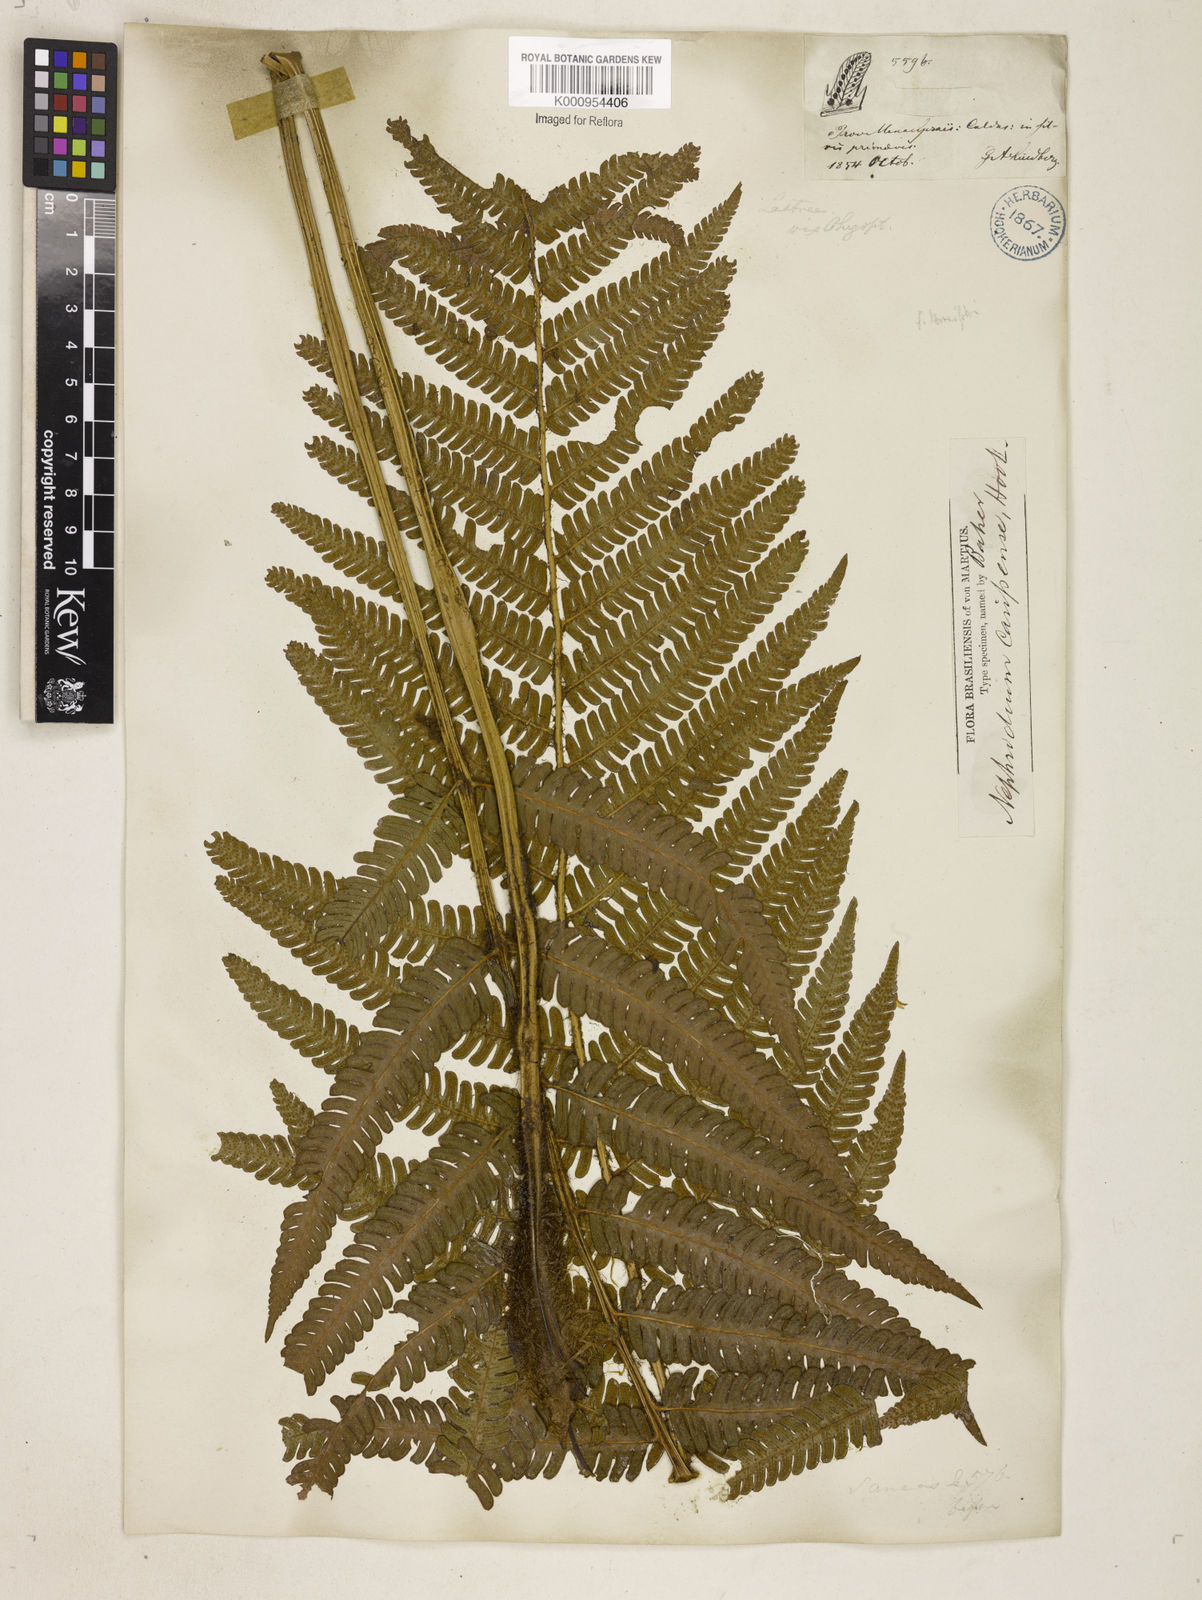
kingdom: Plantae
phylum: Tracheophyta
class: Polypodiopsida
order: Polypodiales
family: Dryopteridaceae
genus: Ctenitis
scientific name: Ctenitis submarginalis
